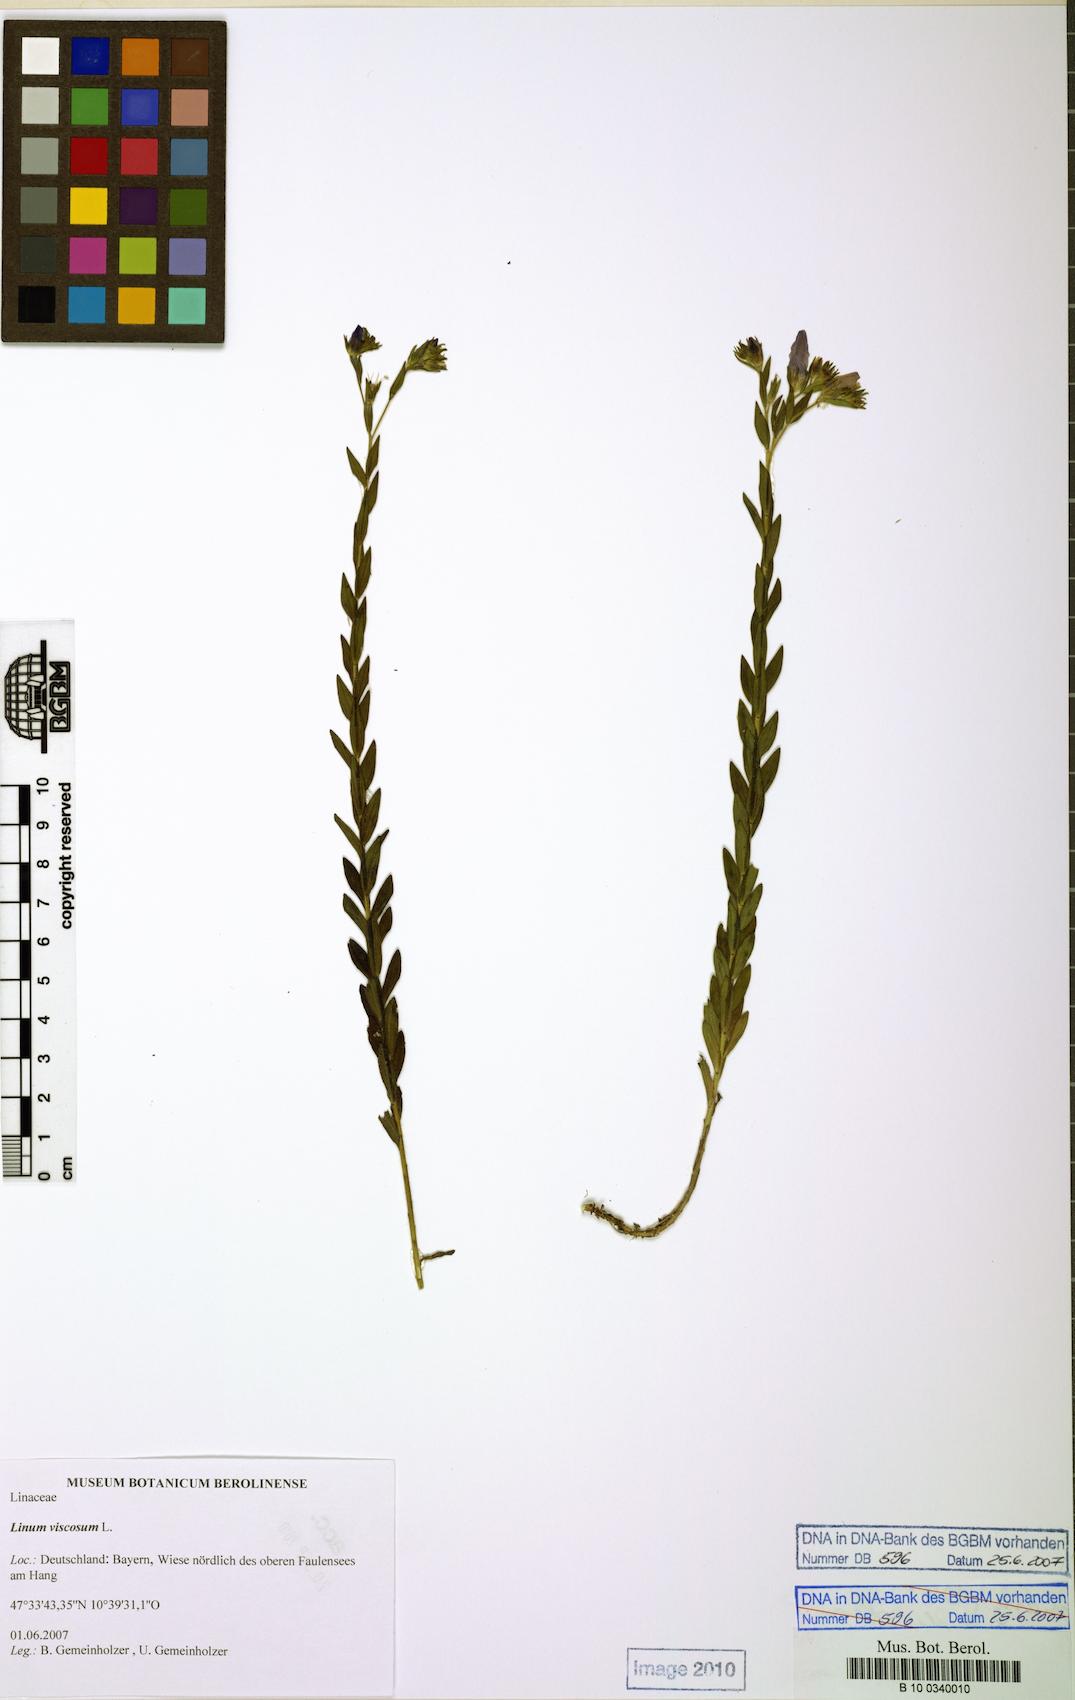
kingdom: Plantae
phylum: Tracheophyta
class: Magnoliopsida
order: Malpighiales
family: Linaceae
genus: Linum
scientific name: Linum viscosum
